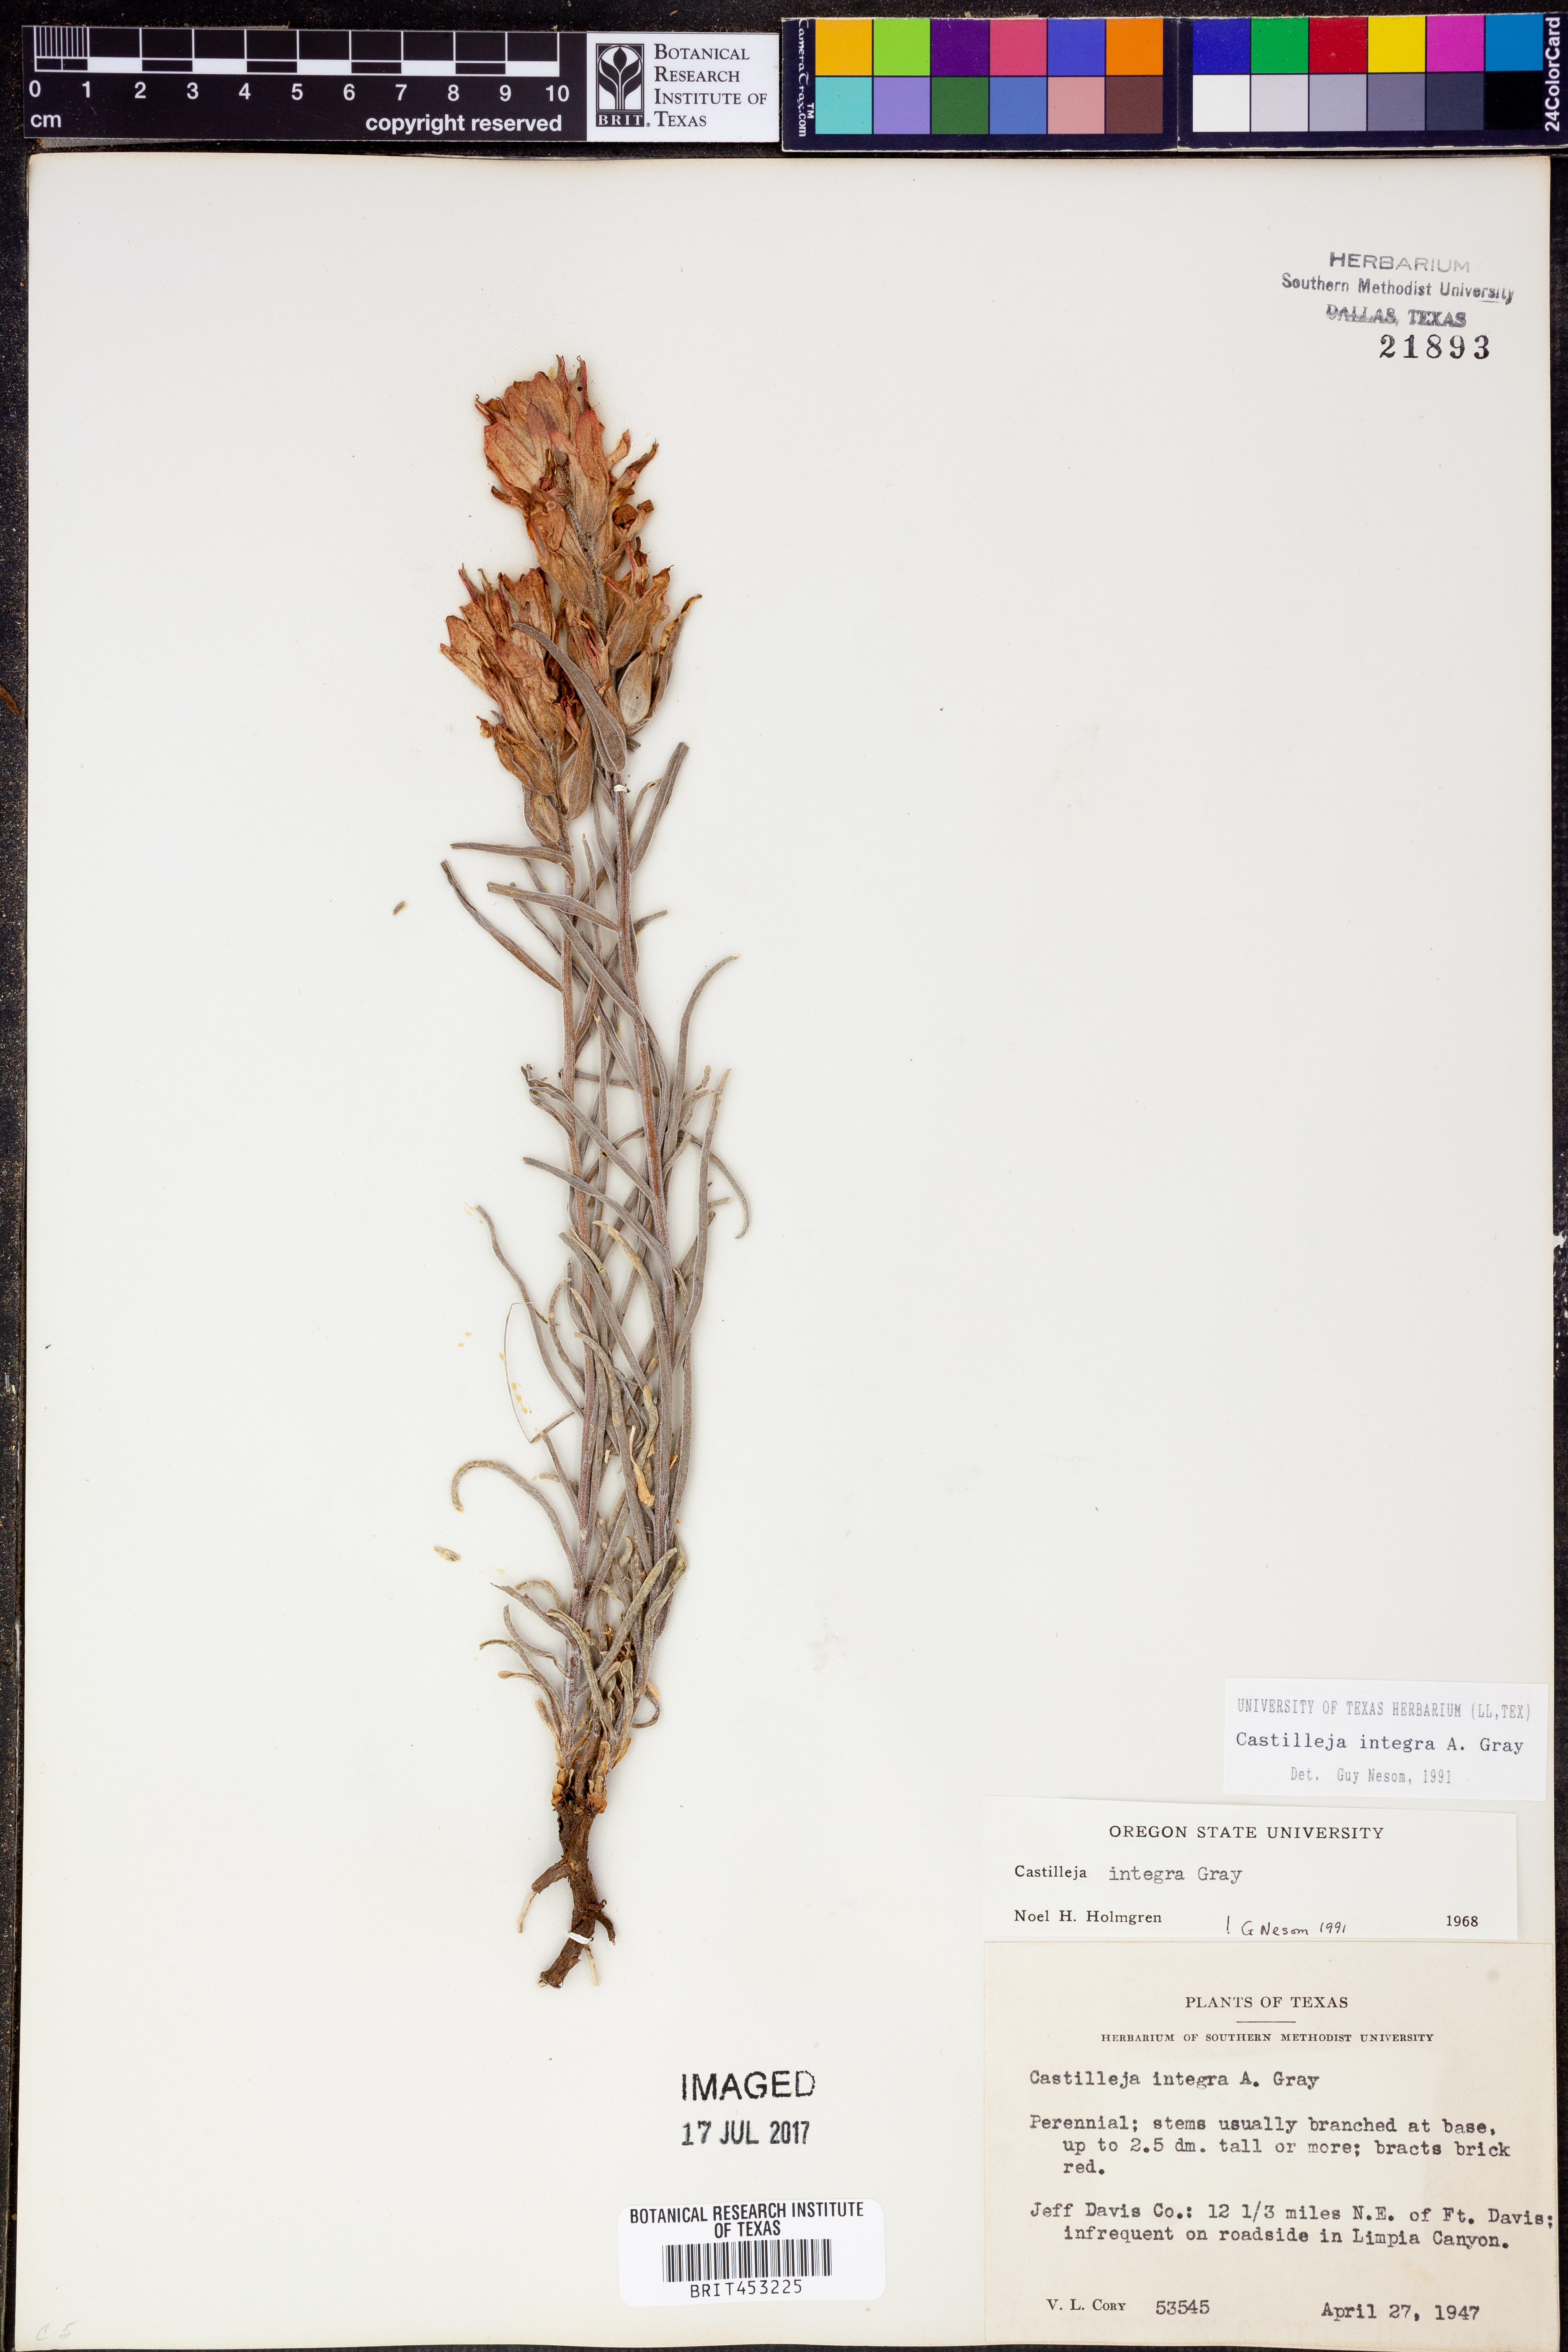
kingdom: Plantae
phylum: Tracheophyta
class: Magnoliopsida
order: Lamiales
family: Orobanchaceae
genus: Castilleja
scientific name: Castilleja integra
